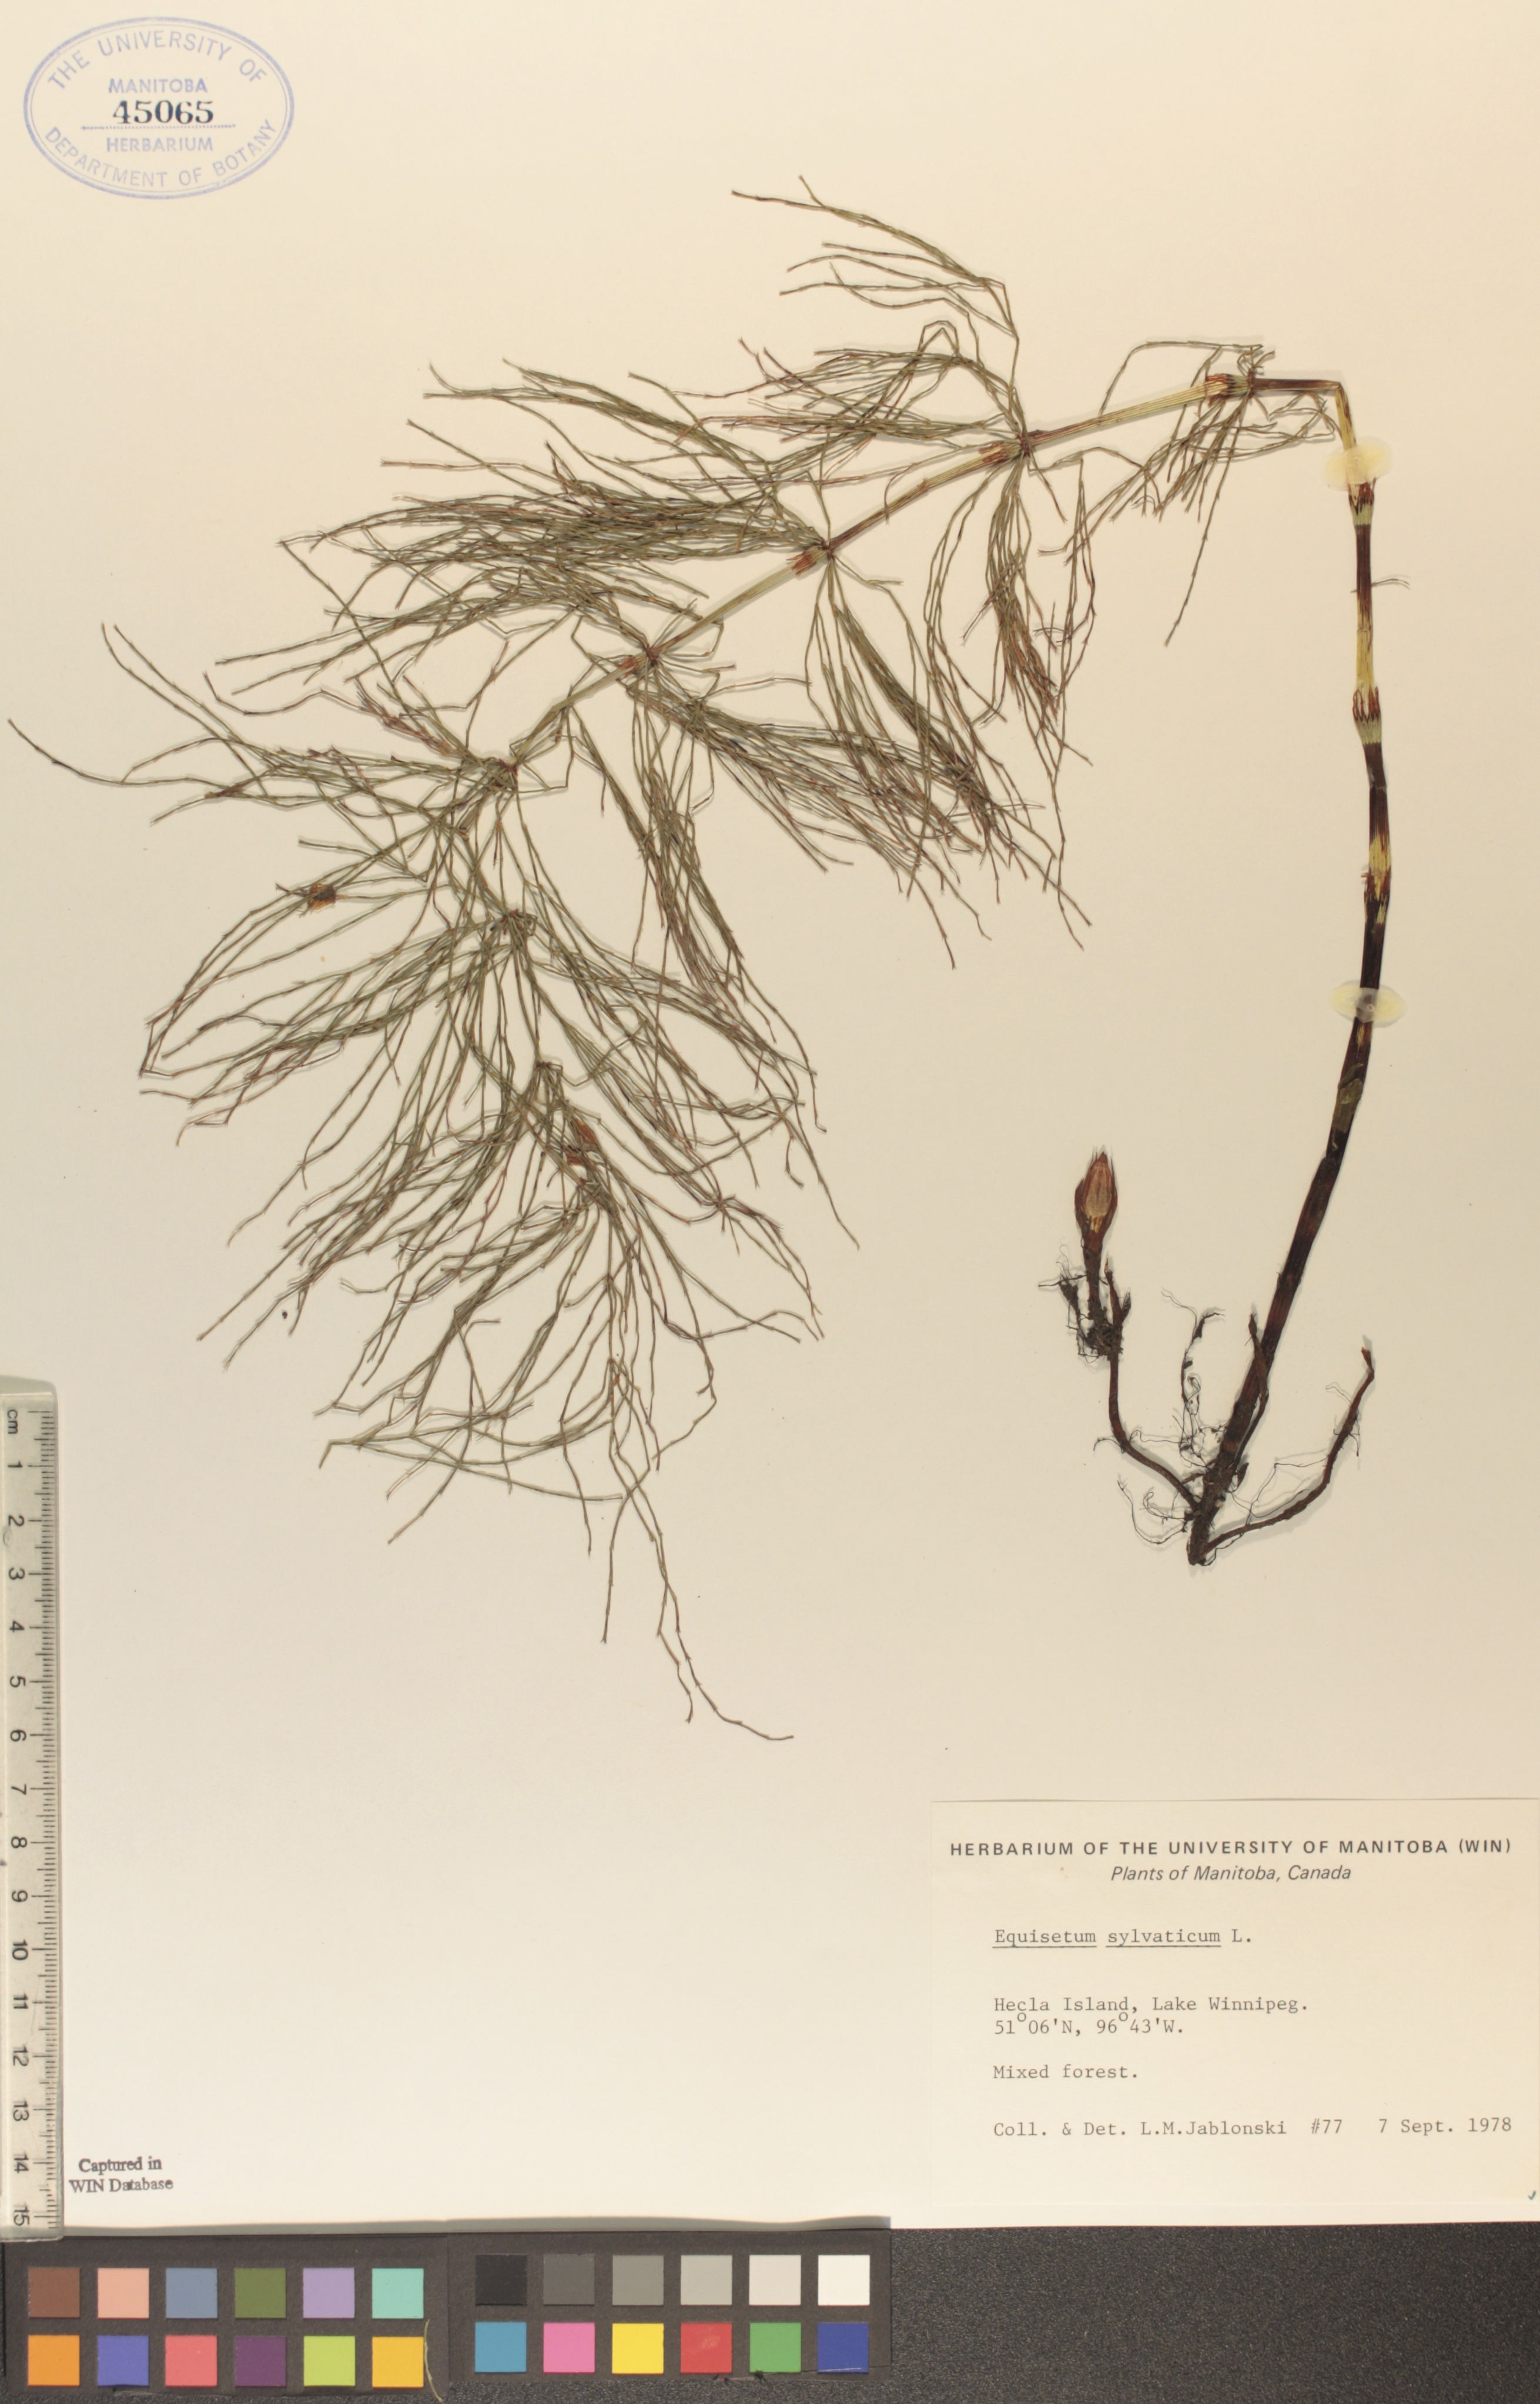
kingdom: Plantae
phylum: Tracheophyta
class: Polypodiopsida
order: Equisetales
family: Equisetaceae
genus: Equisetum
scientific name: Equisetum sylvaticum
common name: Wood horsetail
